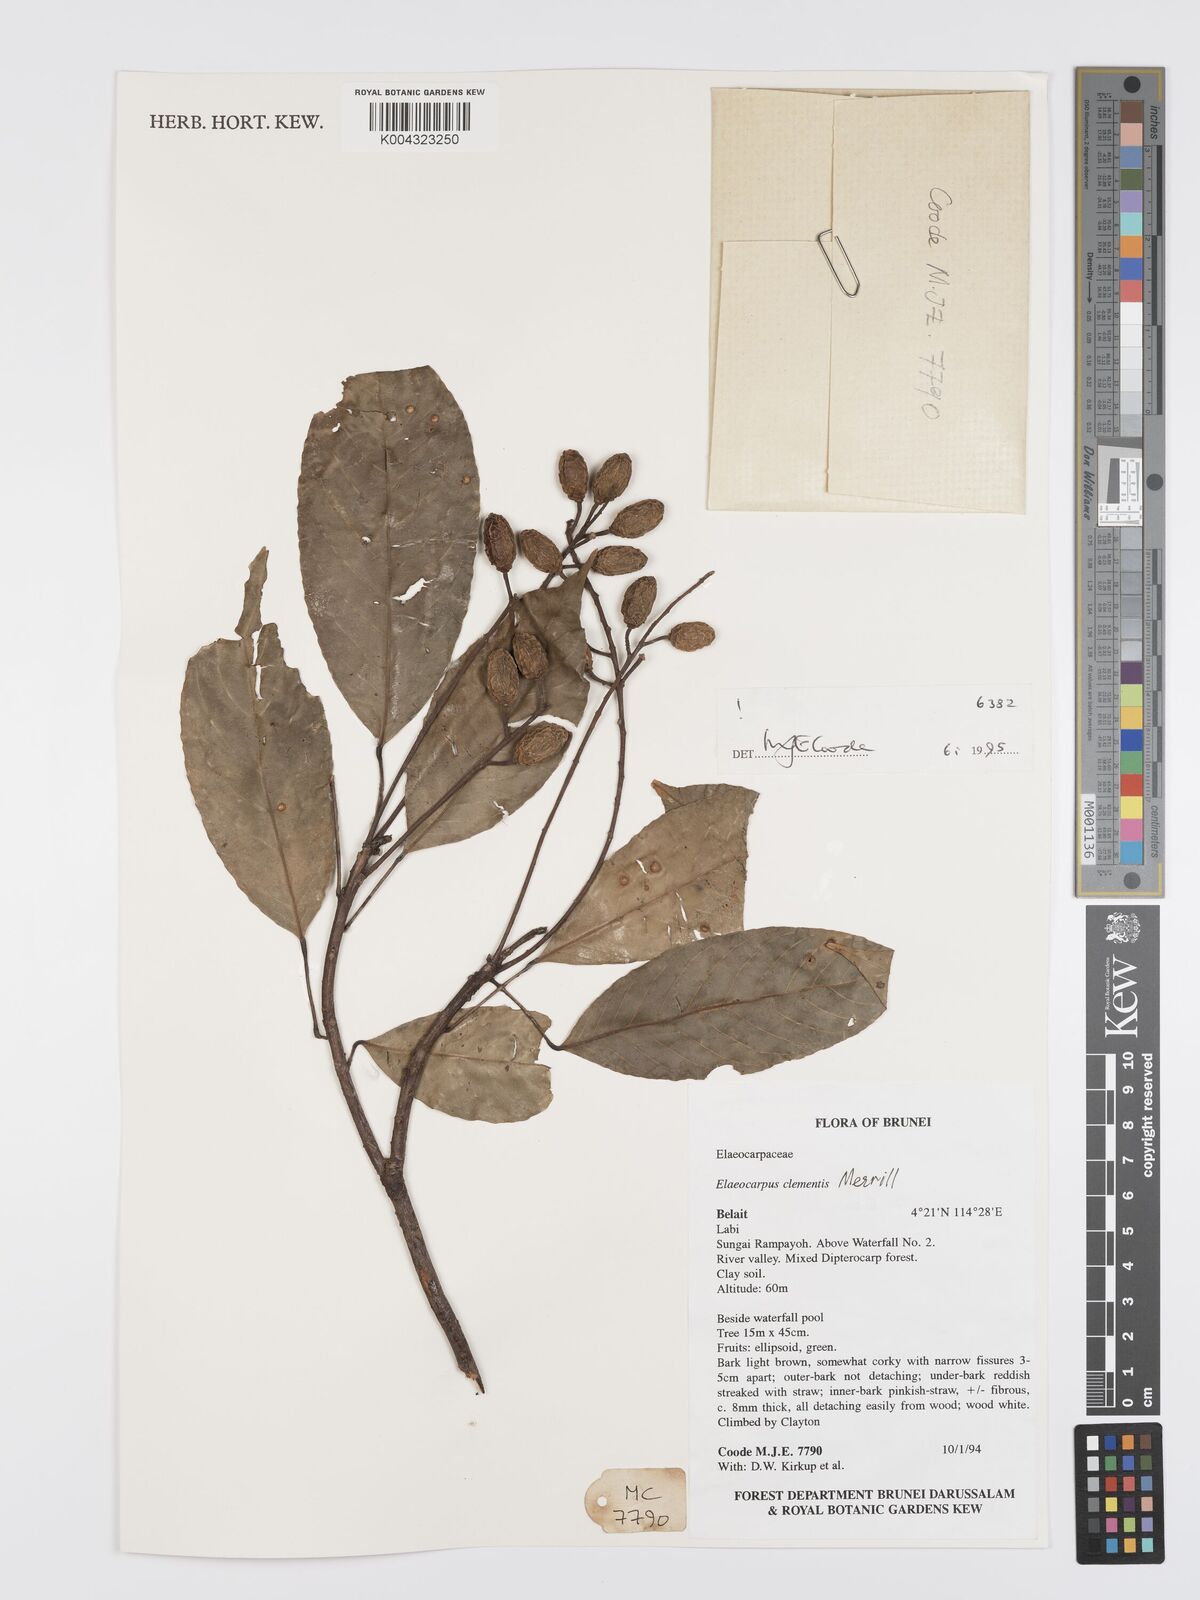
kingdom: Plantae
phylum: Tracheophyta
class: Magnoliopsida
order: Oxalidales
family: Elaeocarpaceae
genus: Elaeocarpus
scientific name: Elaeocarpus clementis
